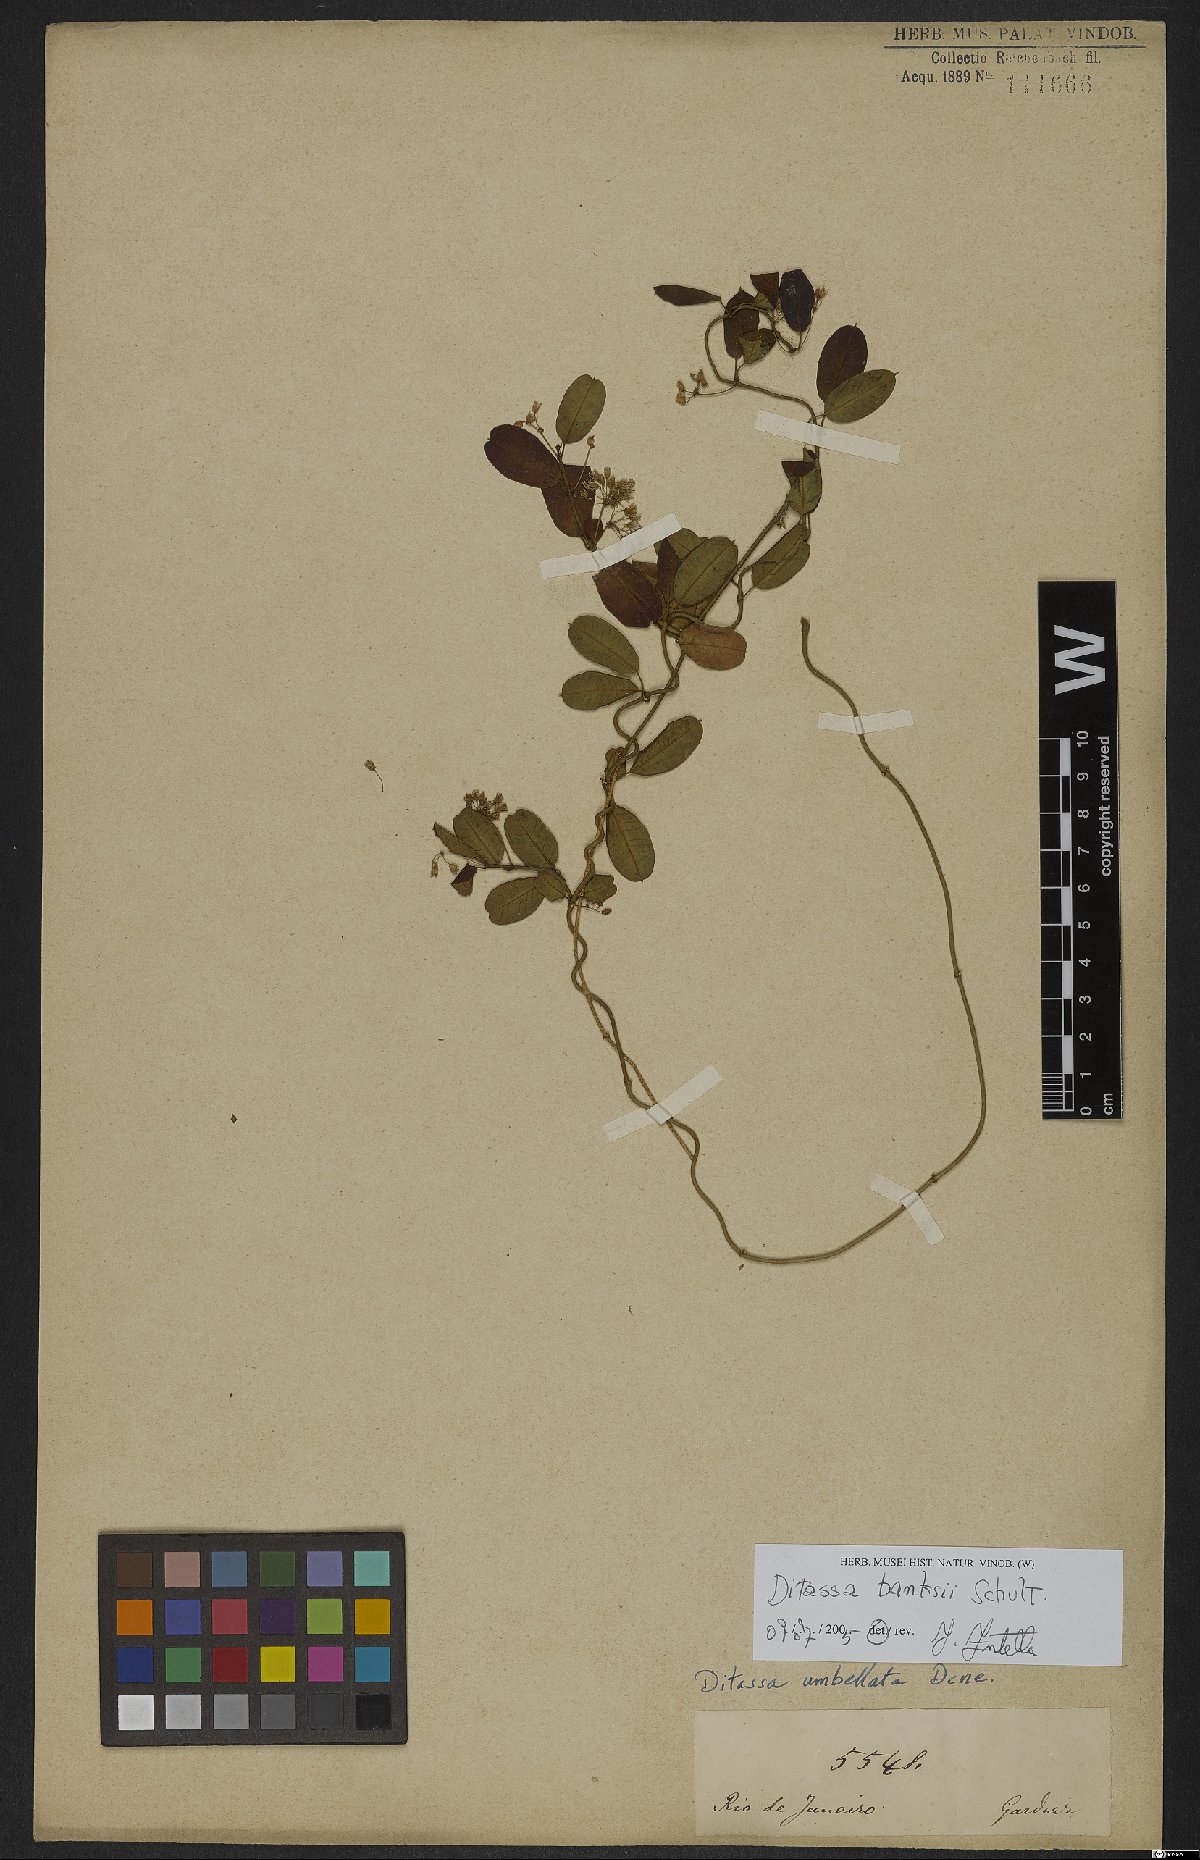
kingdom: Plantae
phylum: Tracheophyta
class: Magnoliopsida
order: Gentianales
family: Apocynaceae
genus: Ditassa
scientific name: Ditassa banksii
